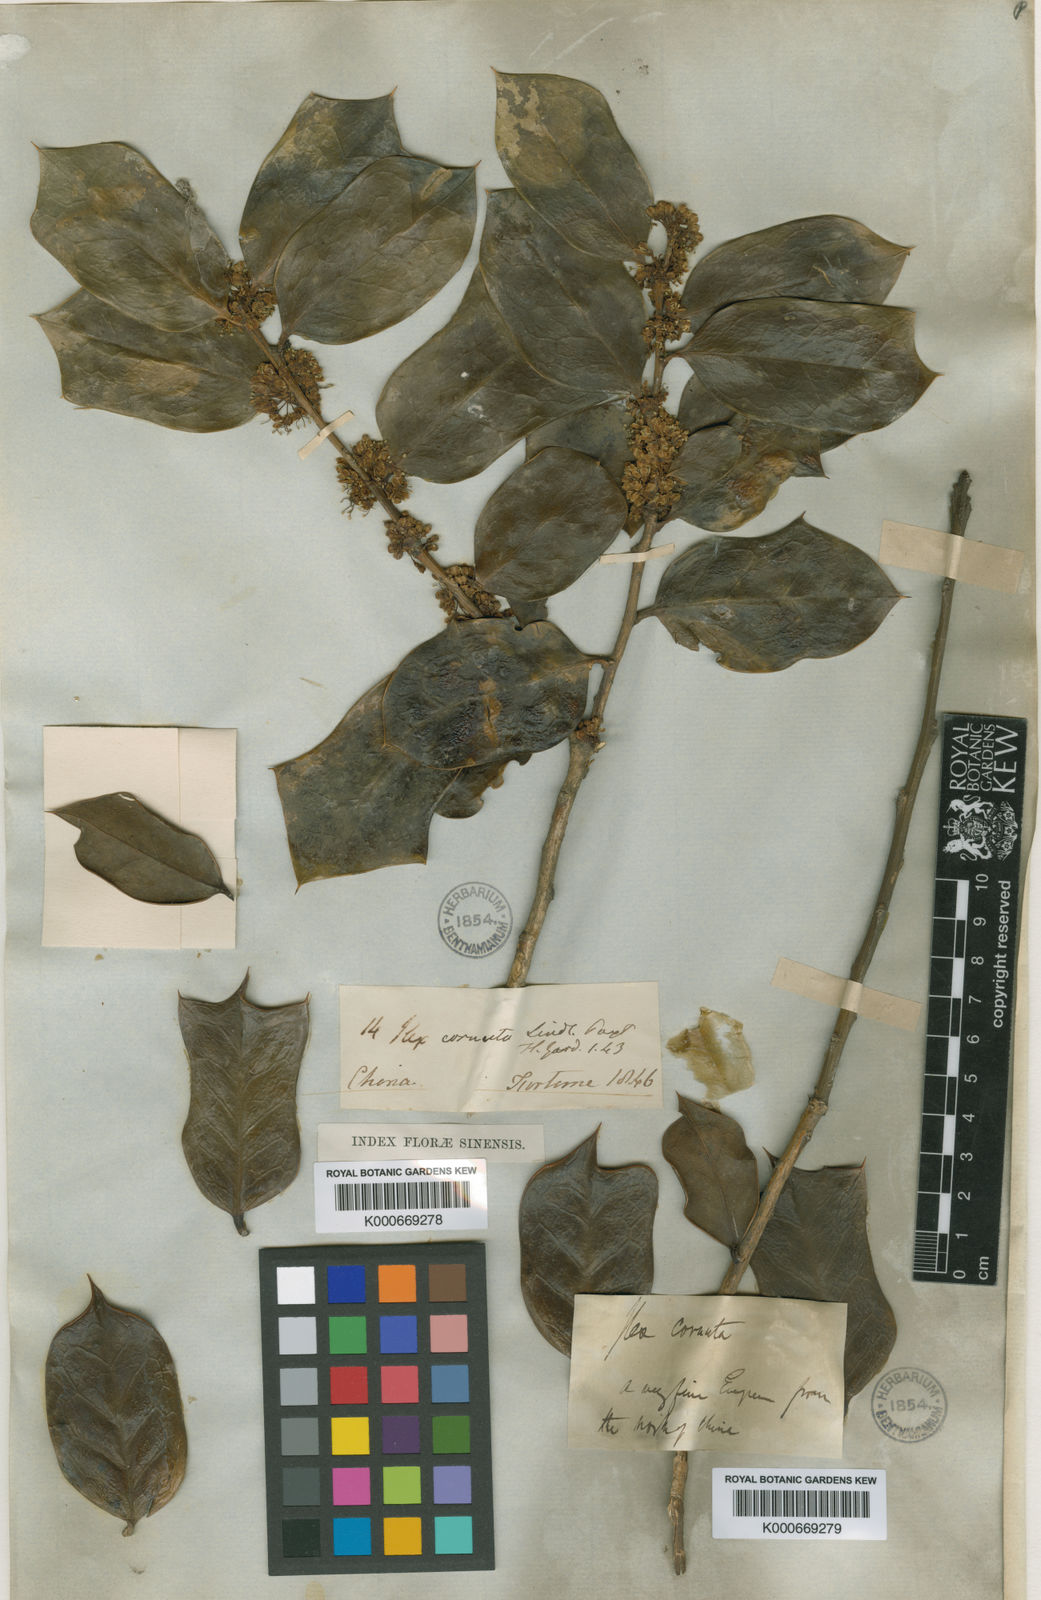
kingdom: Plantae
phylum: Tracheophyta
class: Magnoliopsida
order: Aquifoliales
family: Aquifoliaceae
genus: Ilex
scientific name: Ilex cornuta
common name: Chinese holly
